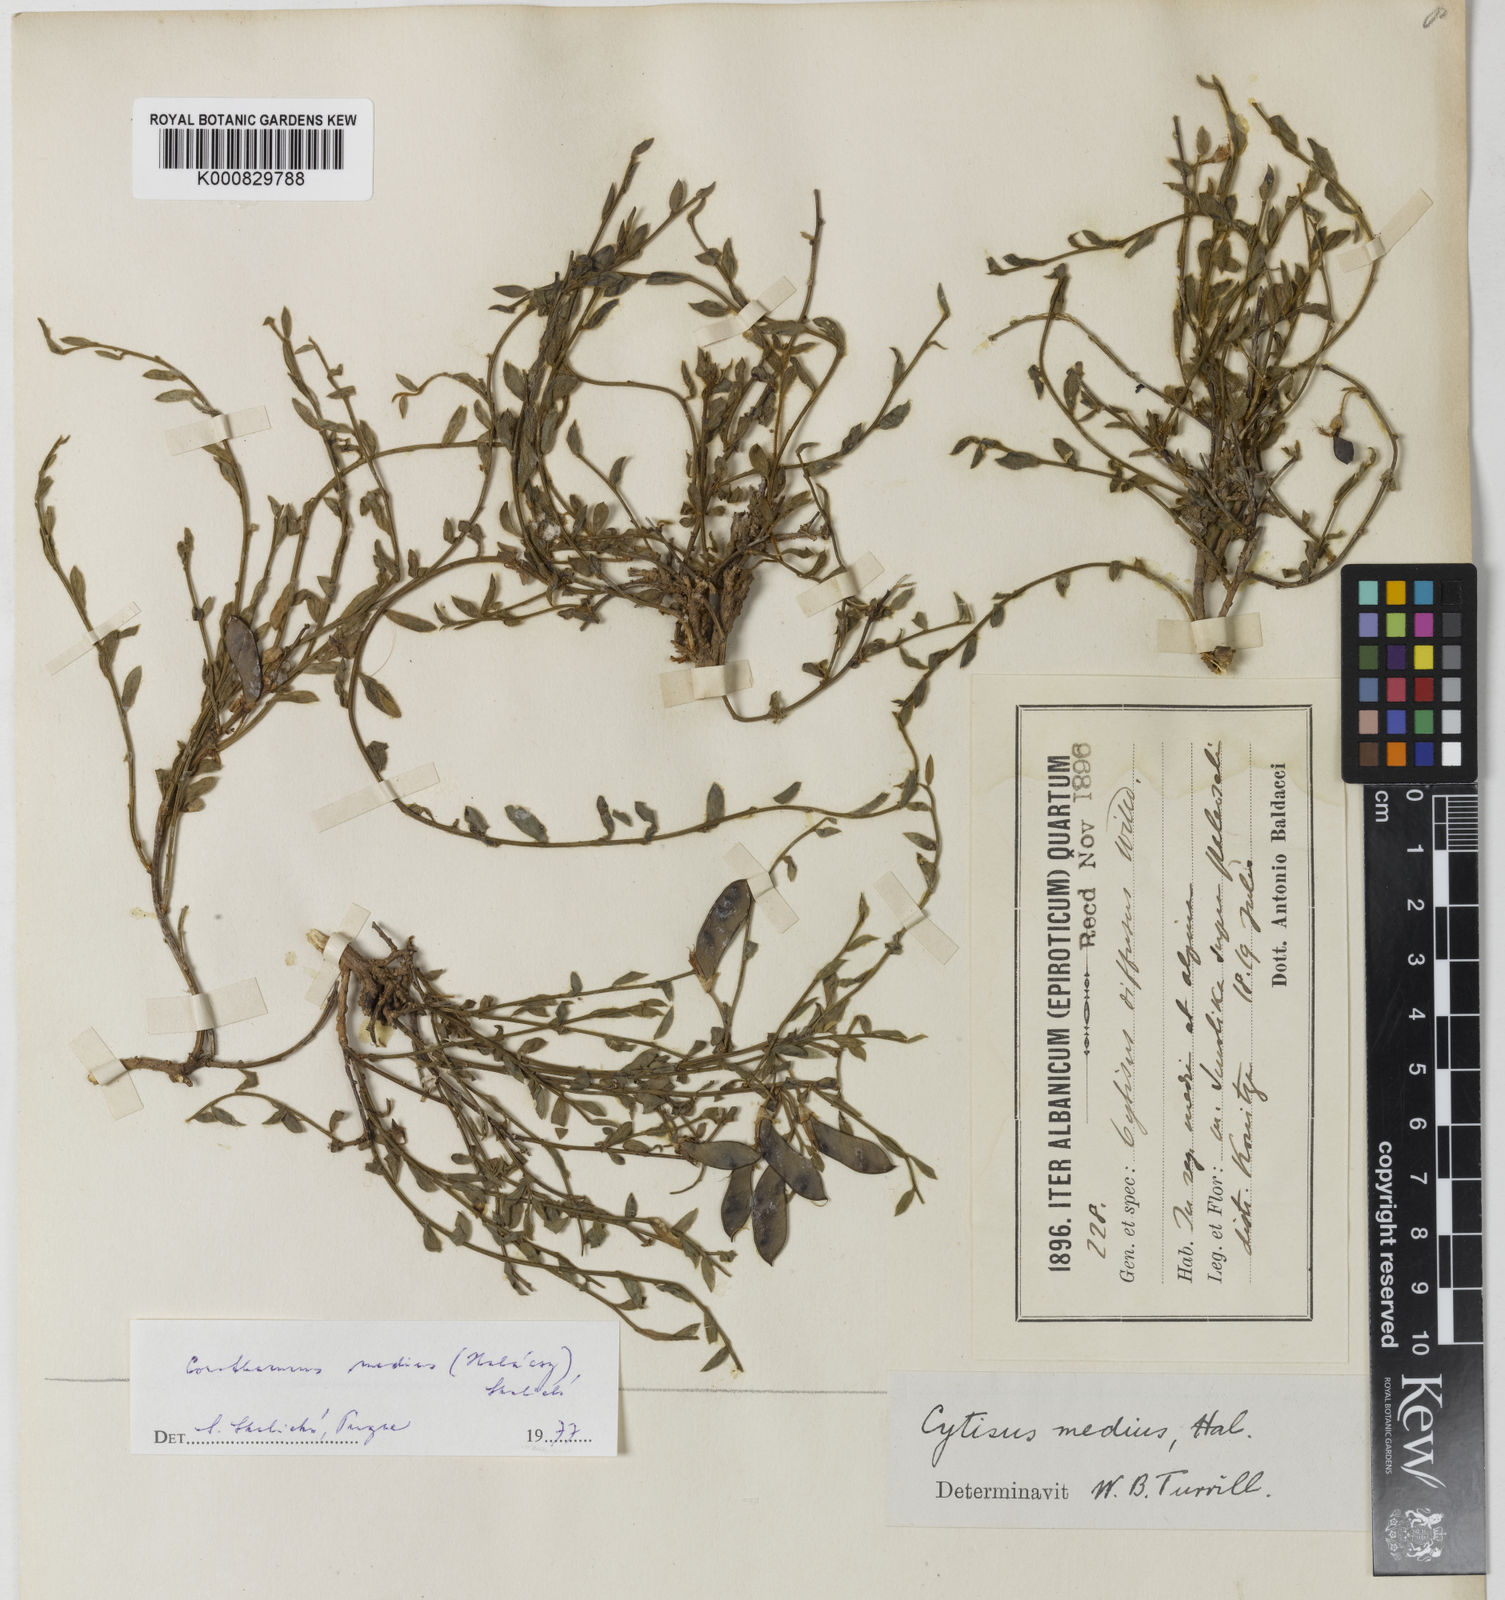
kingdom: Plantae
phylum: Tracheophyta
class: Magnoliopsida
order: Fabales
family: Fabaceae
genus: Cytisus
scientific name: Cytisus decumbens
